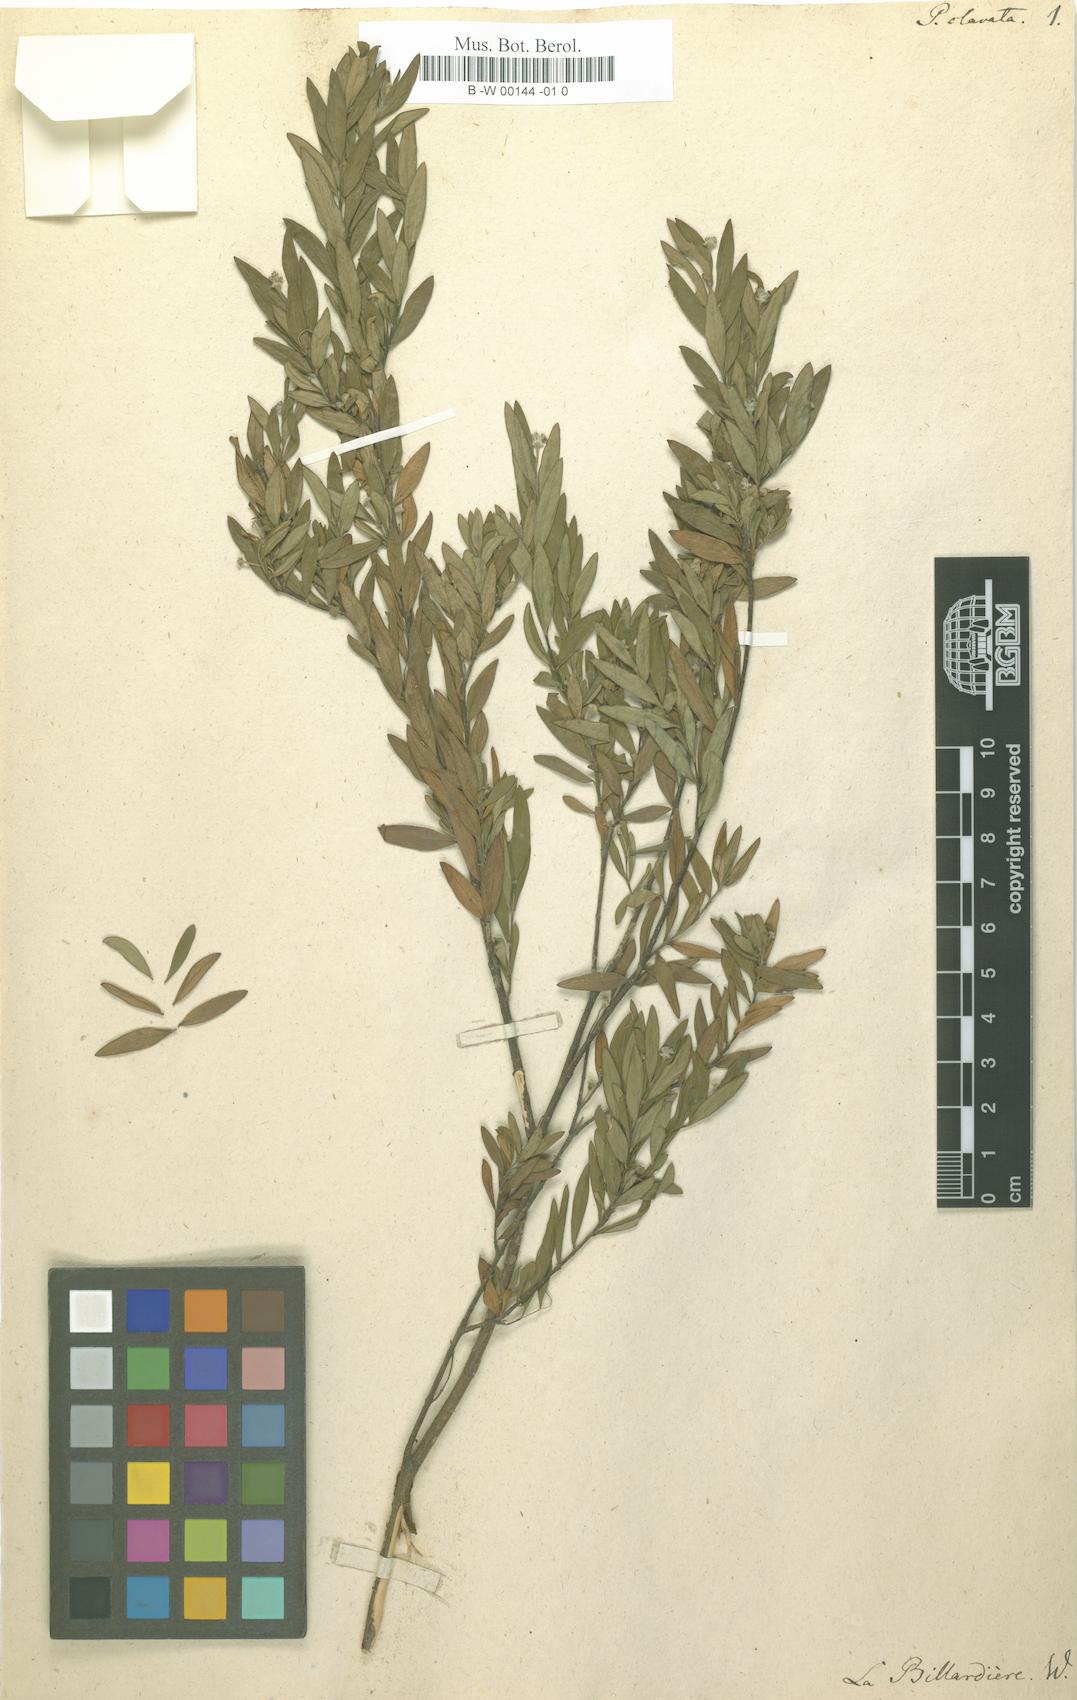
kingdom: Plantae
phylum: Tracheophyta
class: Magnoliopsida
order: Malvales
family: Thymelaeaceae
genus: Pimelea
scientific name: Pimelea clavata
